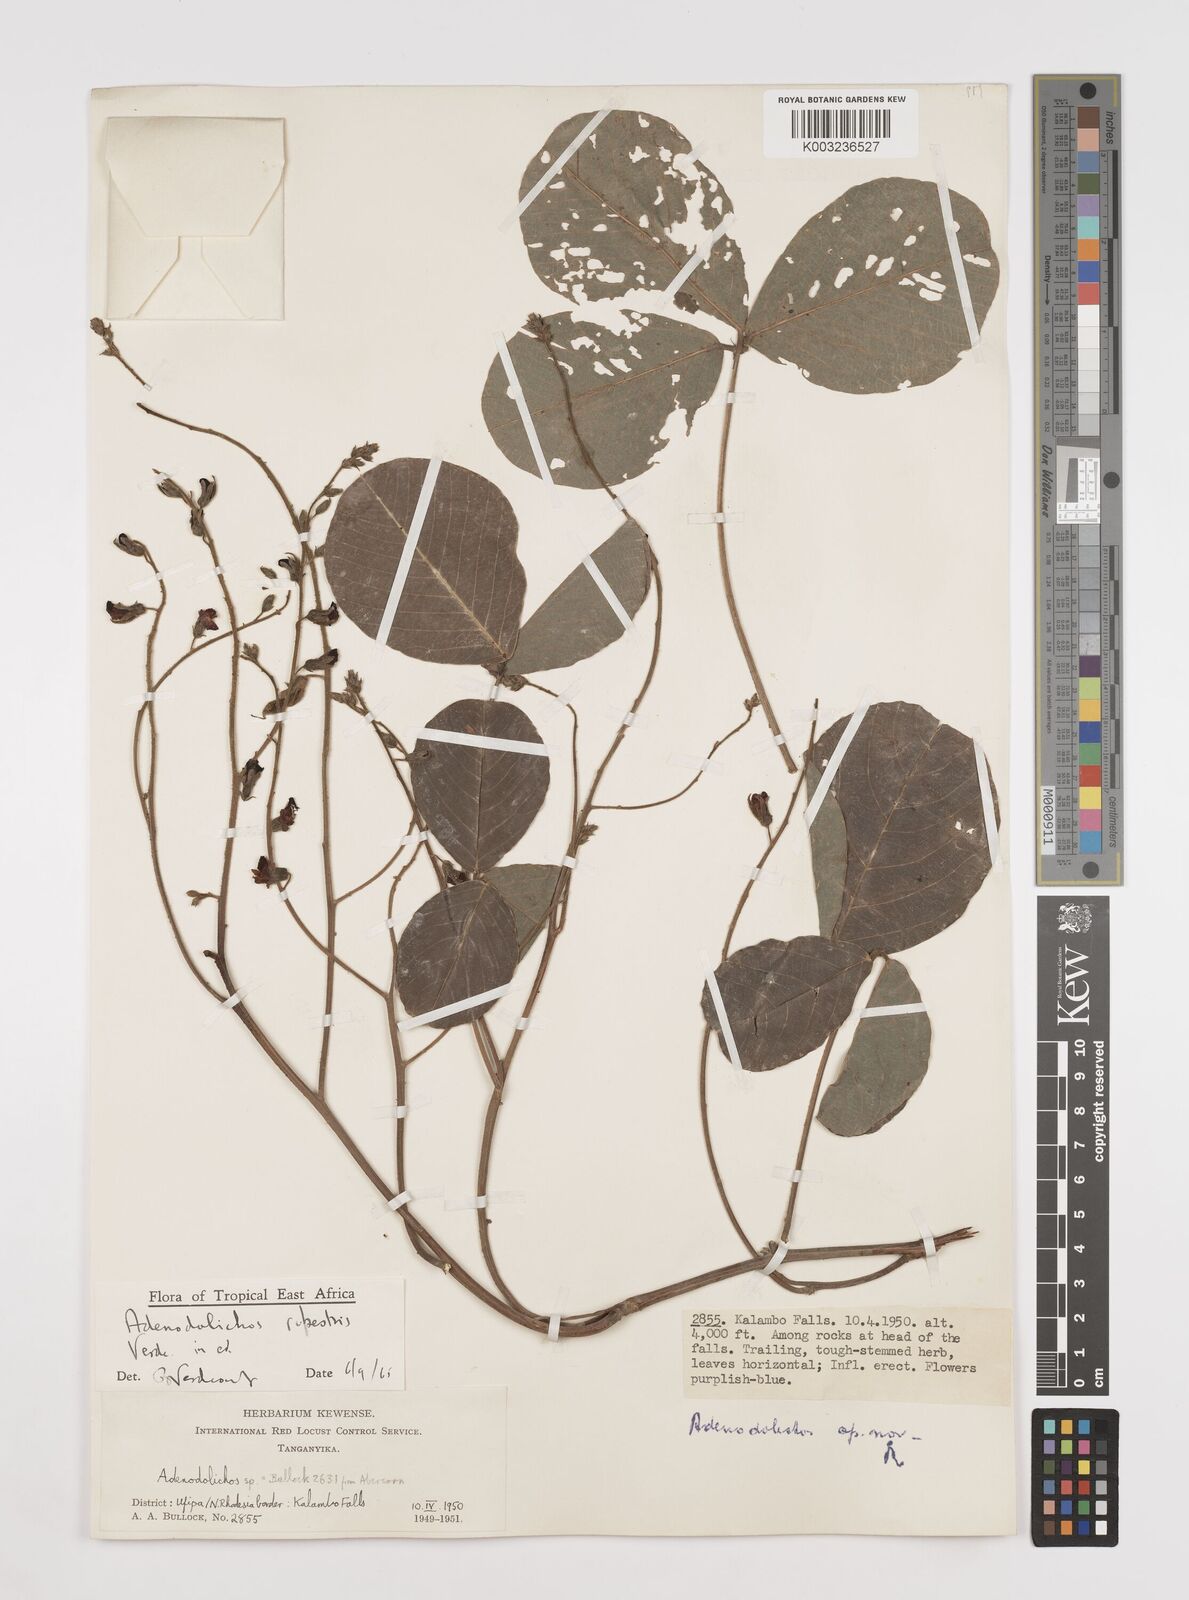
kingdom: Plantae
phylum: Tracheophyta
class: Magnoliopsida
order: Fabales
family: Fabaceae
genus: Adenodolichos
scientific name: Adenodolichos rupestris
